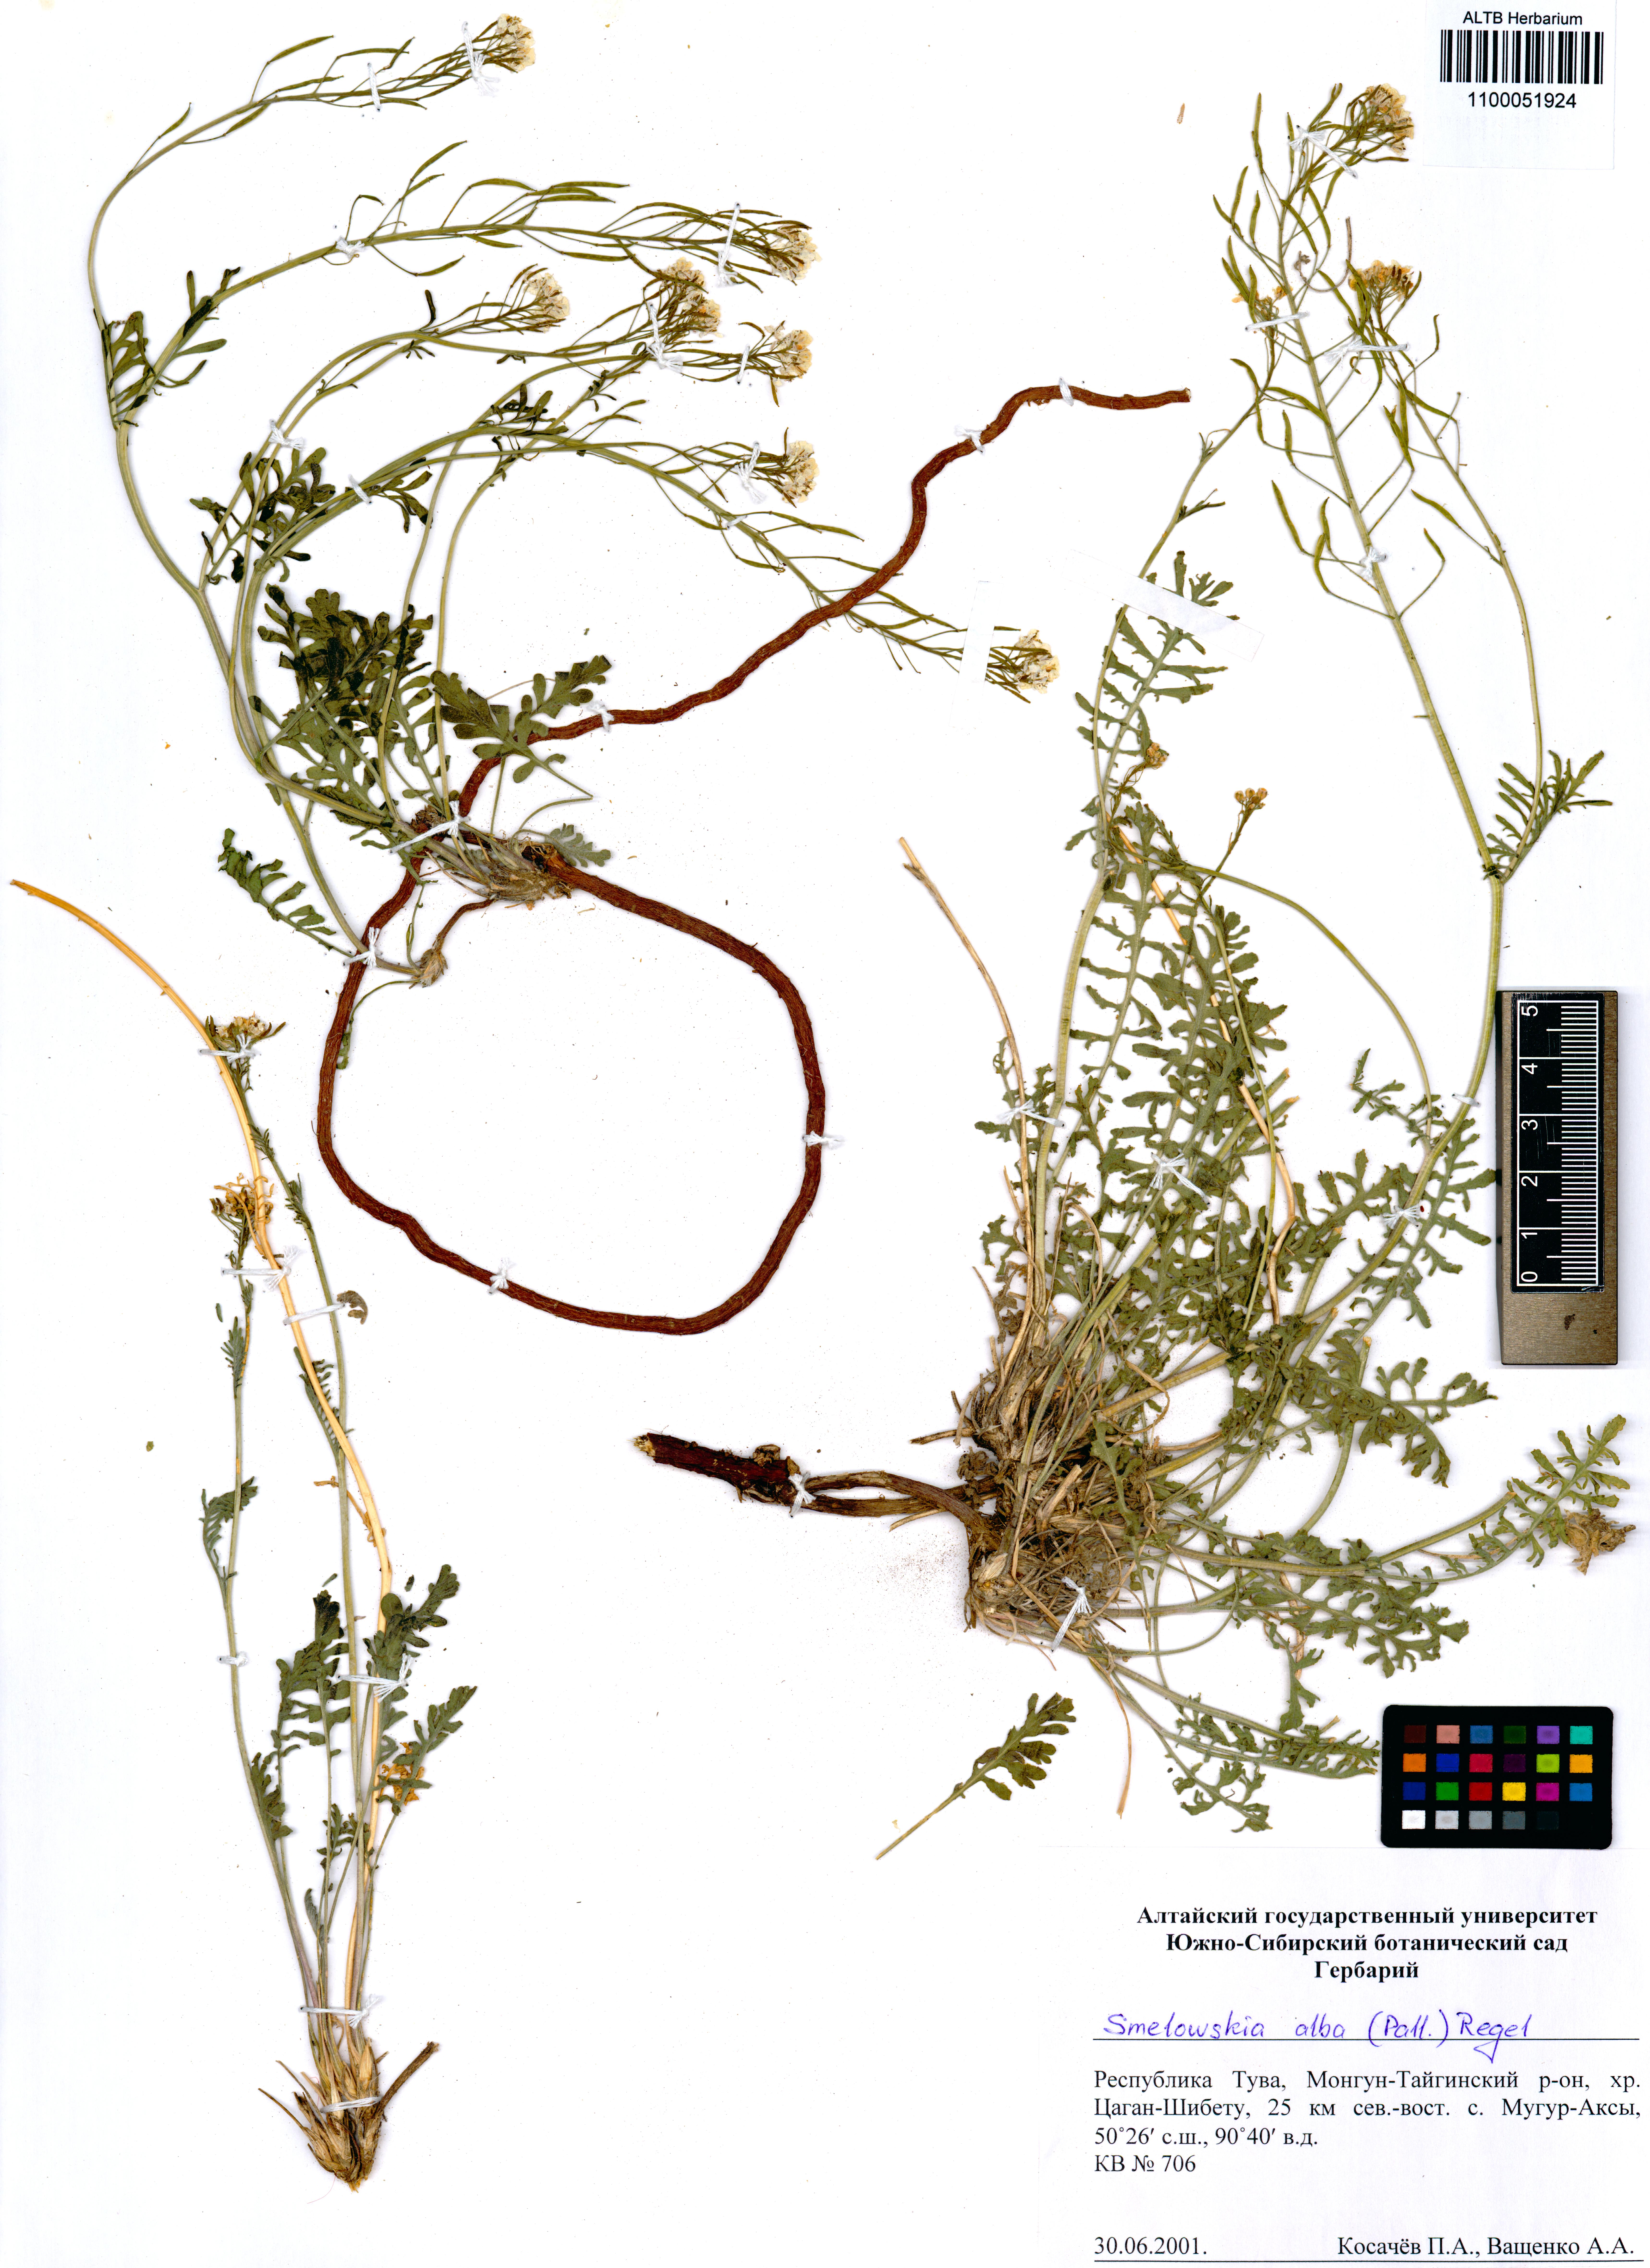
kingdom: Plantae
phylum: Tracheophyta
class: Magnoliopsida
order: Brassicales
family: Brassicaceae
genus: Smelowskia
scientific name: Smelowskia alba
